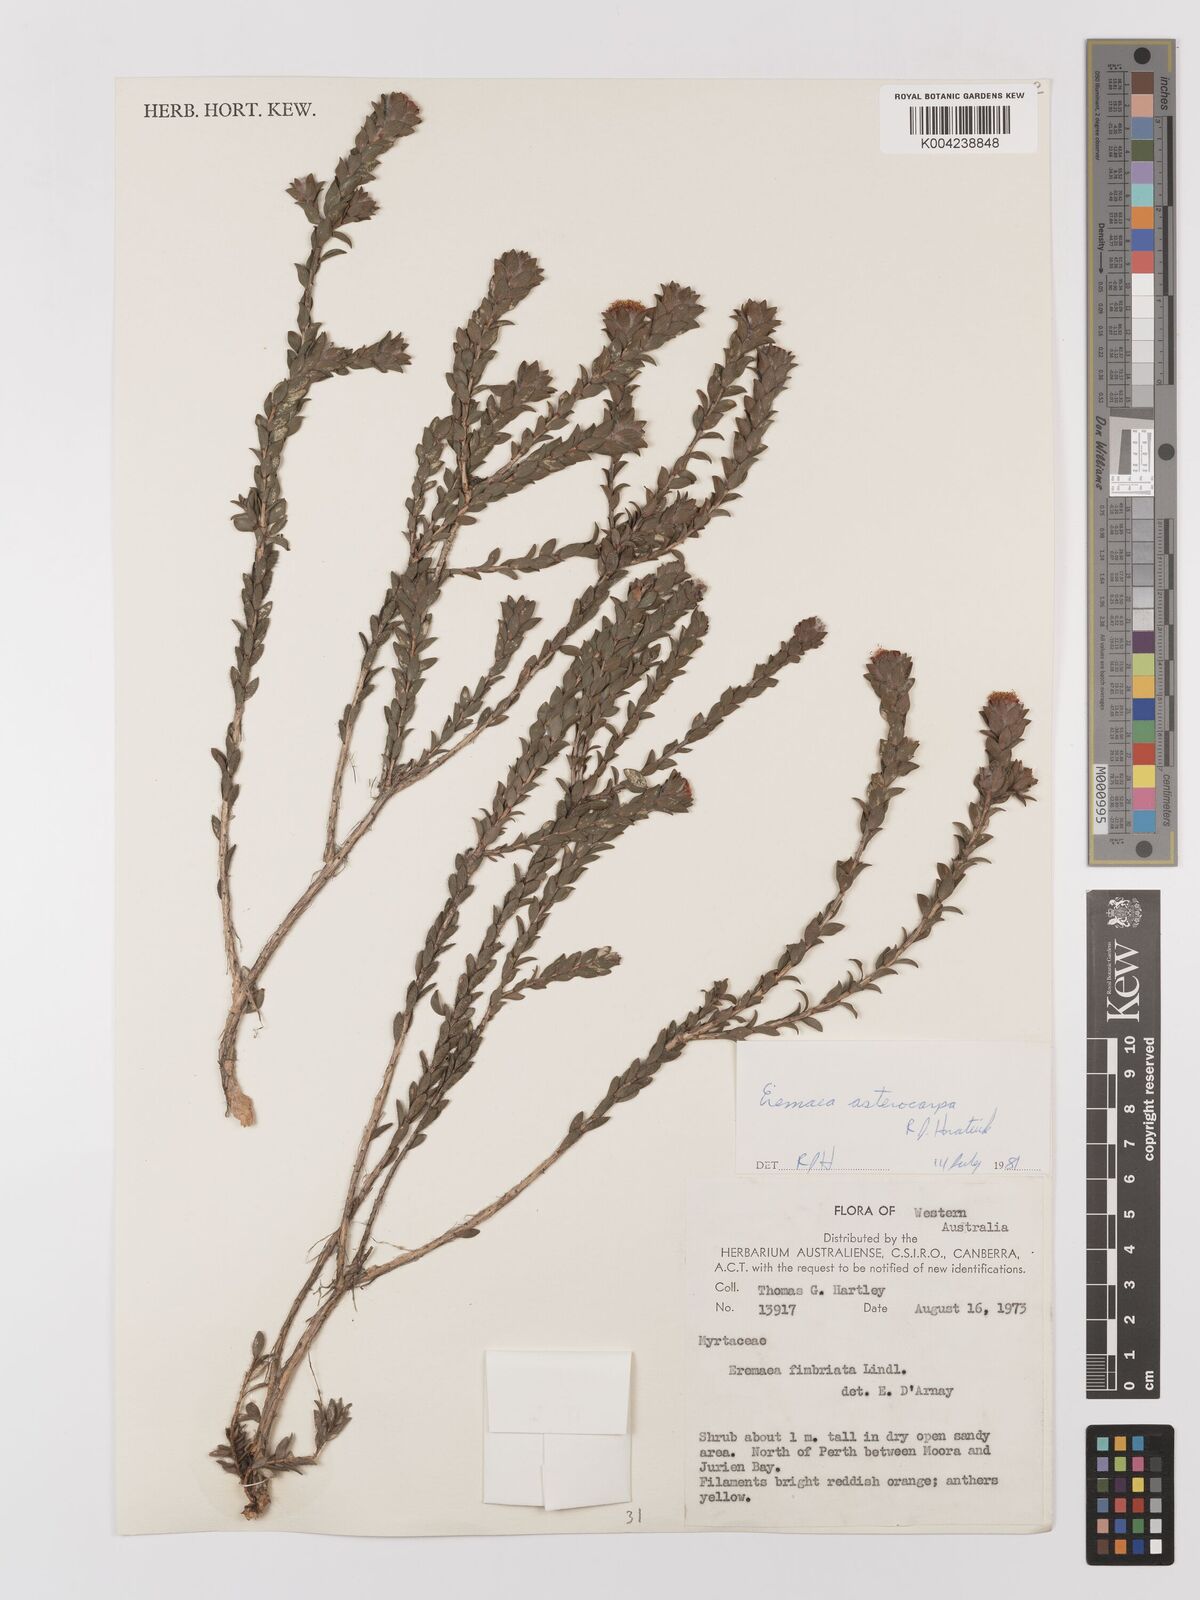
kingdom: Plantae
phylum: Tracheophyta
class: Magnoliopsida
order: Myrtales
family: Myrtaceae
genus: Melaleuca
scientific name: Melaleuca asterocarpa
